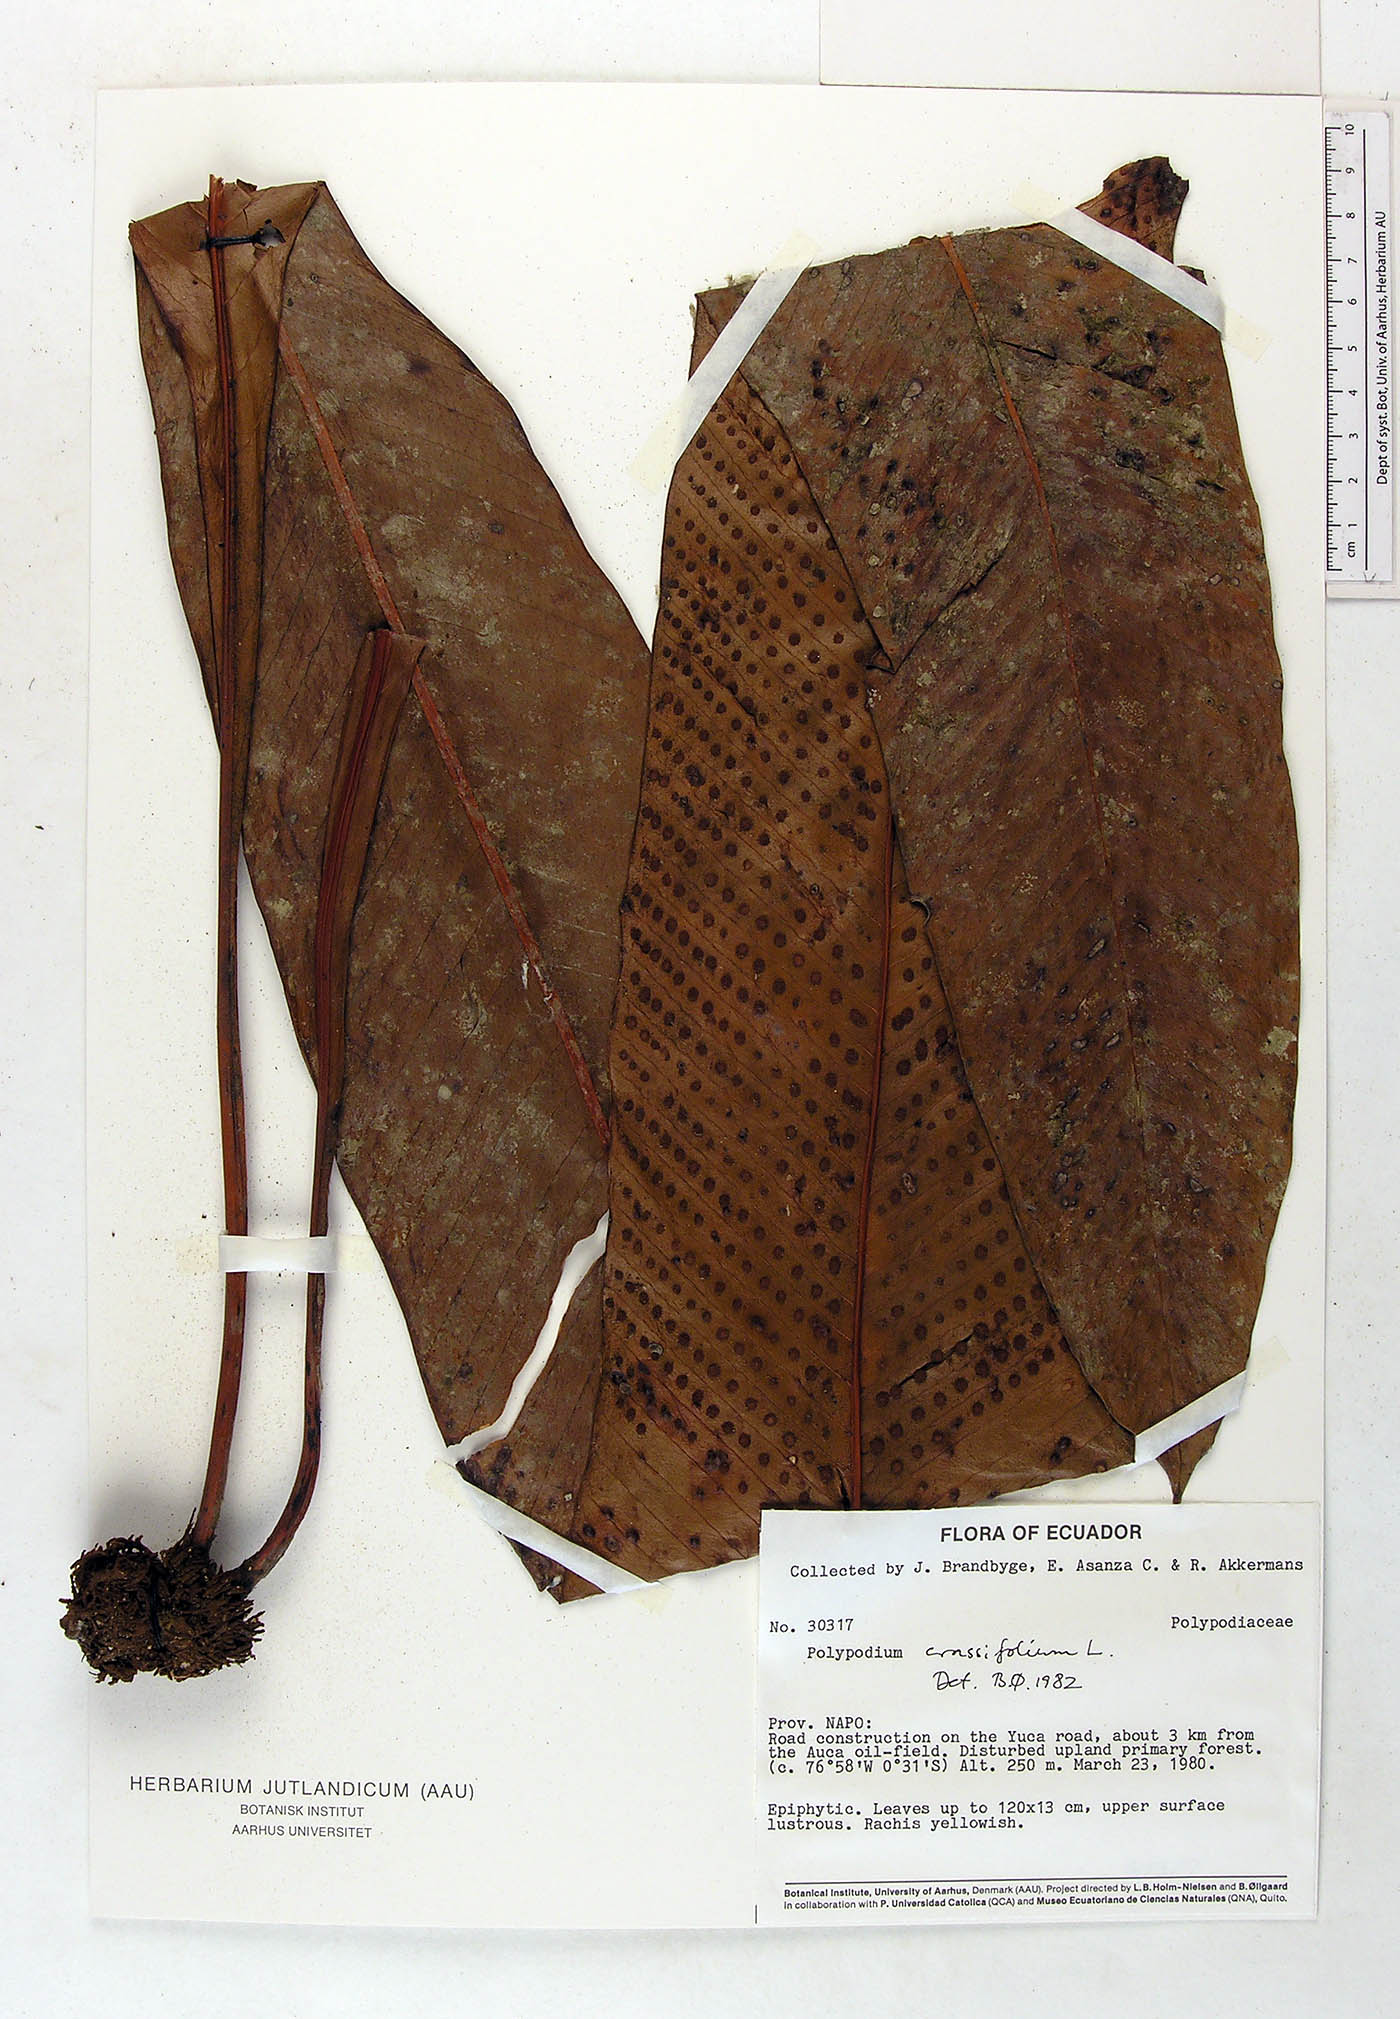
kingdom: Plantae
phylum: Tracheophyta
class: Polypodiopsida
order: Polypodiales
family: Polypodiaceae
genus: Niphidium
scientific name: Niphidium crassifolium
